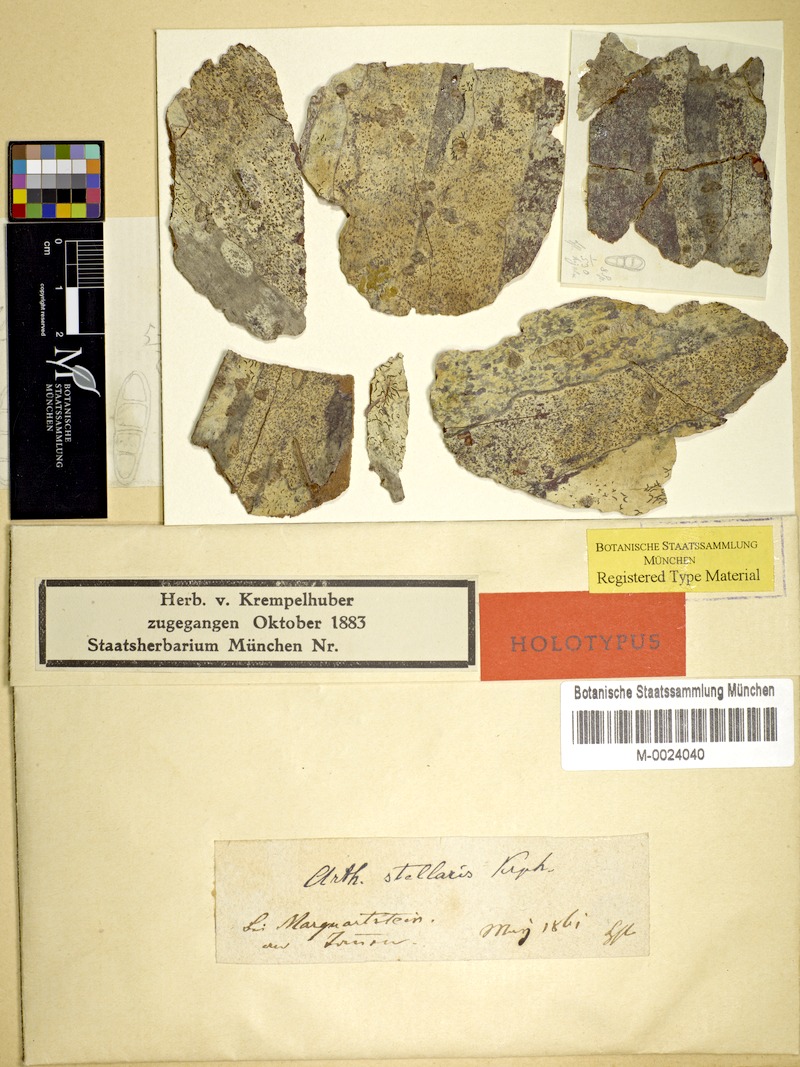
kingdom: Fungi
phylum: Ascomycota
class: Arthoniomycetes
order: Arthoniales
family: Arthoniaceae
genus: Coniocarpon
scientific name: Coniocarpon cinnabarinum
